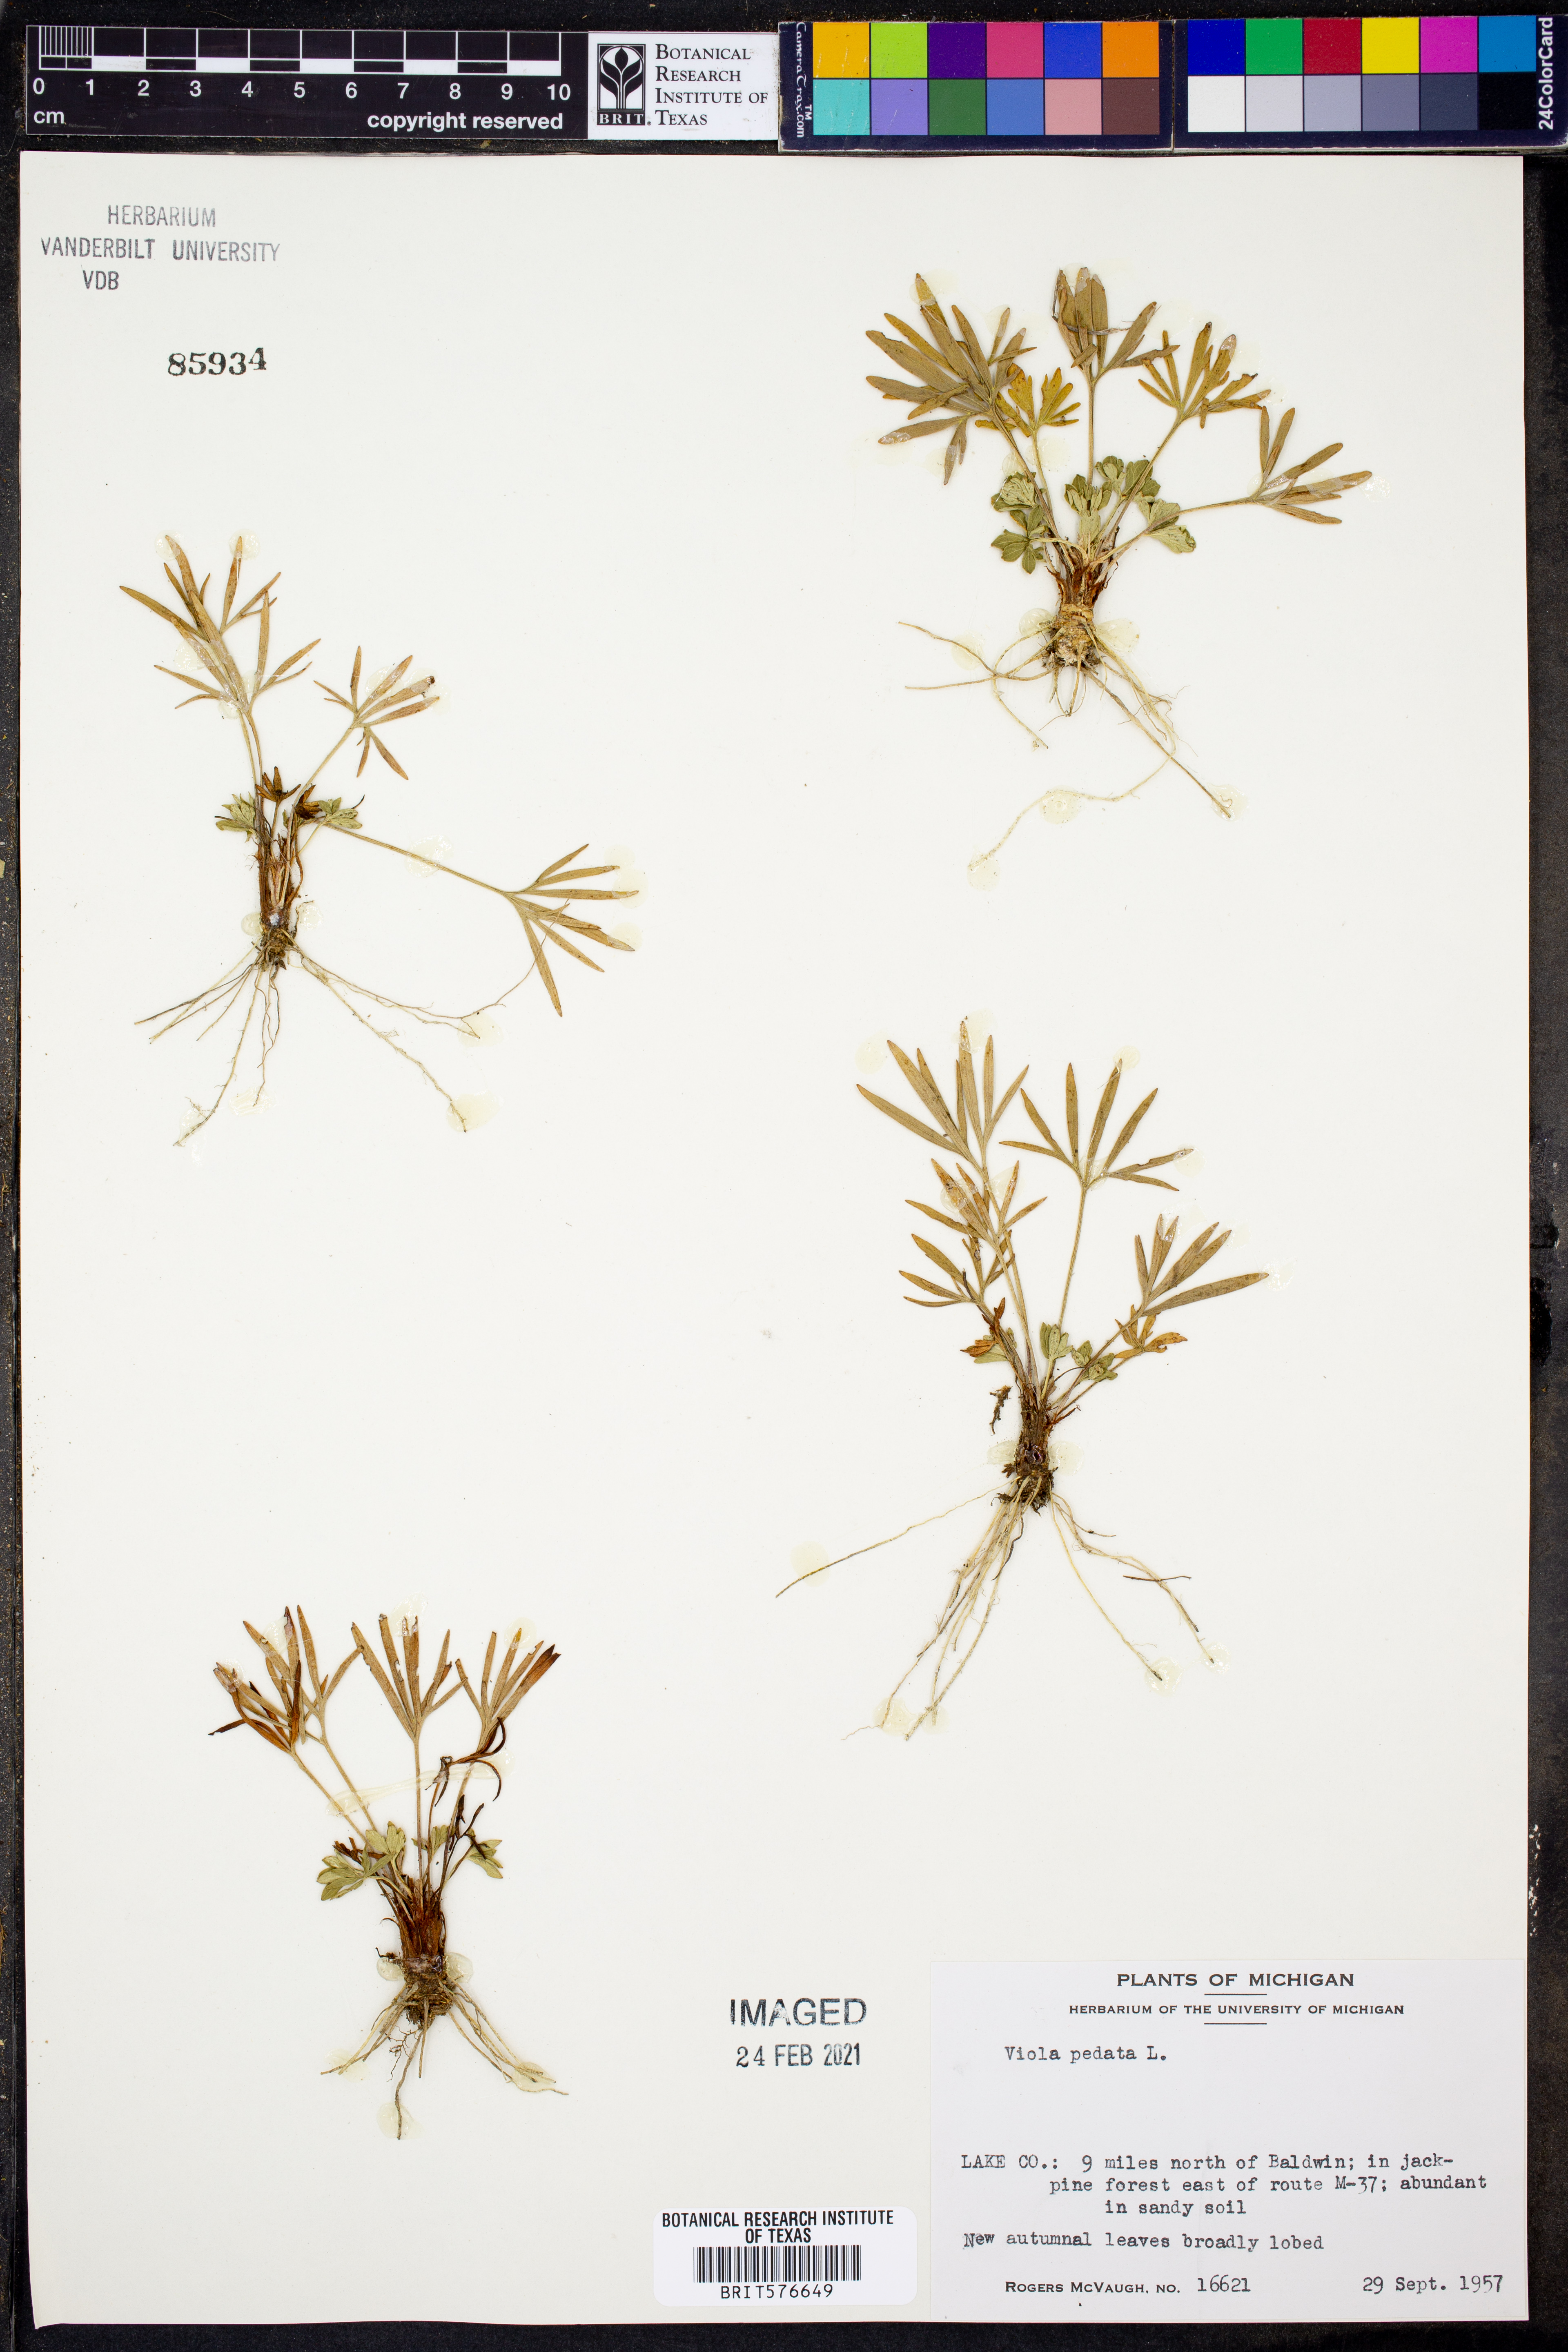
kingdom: Plantae
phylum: Tracheophyta
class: Magnoliopsida
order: Malpighiales
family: Violaceae
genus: Viola
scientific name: Viola pedata
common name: Pansy violet
